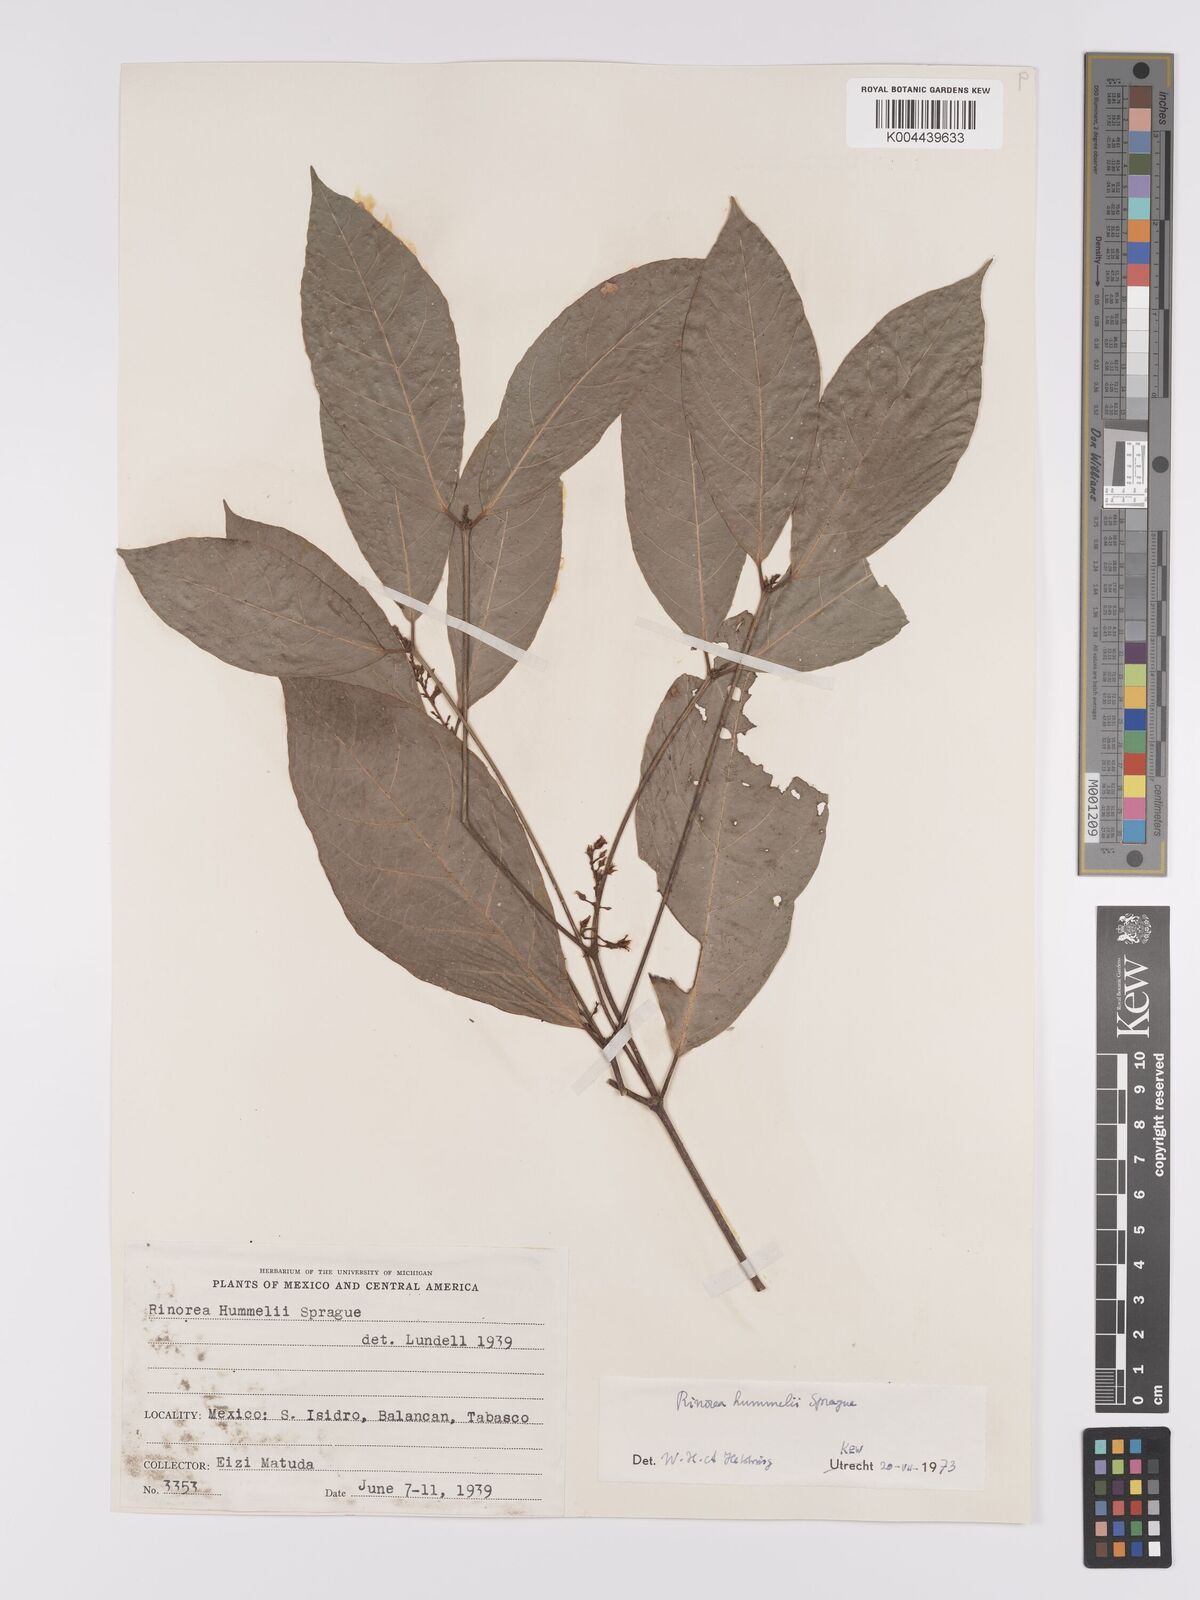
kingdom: Plantae
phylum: Tracheophyta
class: Magnoliopsida
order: Malpighiales
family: Violaceae
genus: Rinorea
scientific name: Rinorea hummelii
